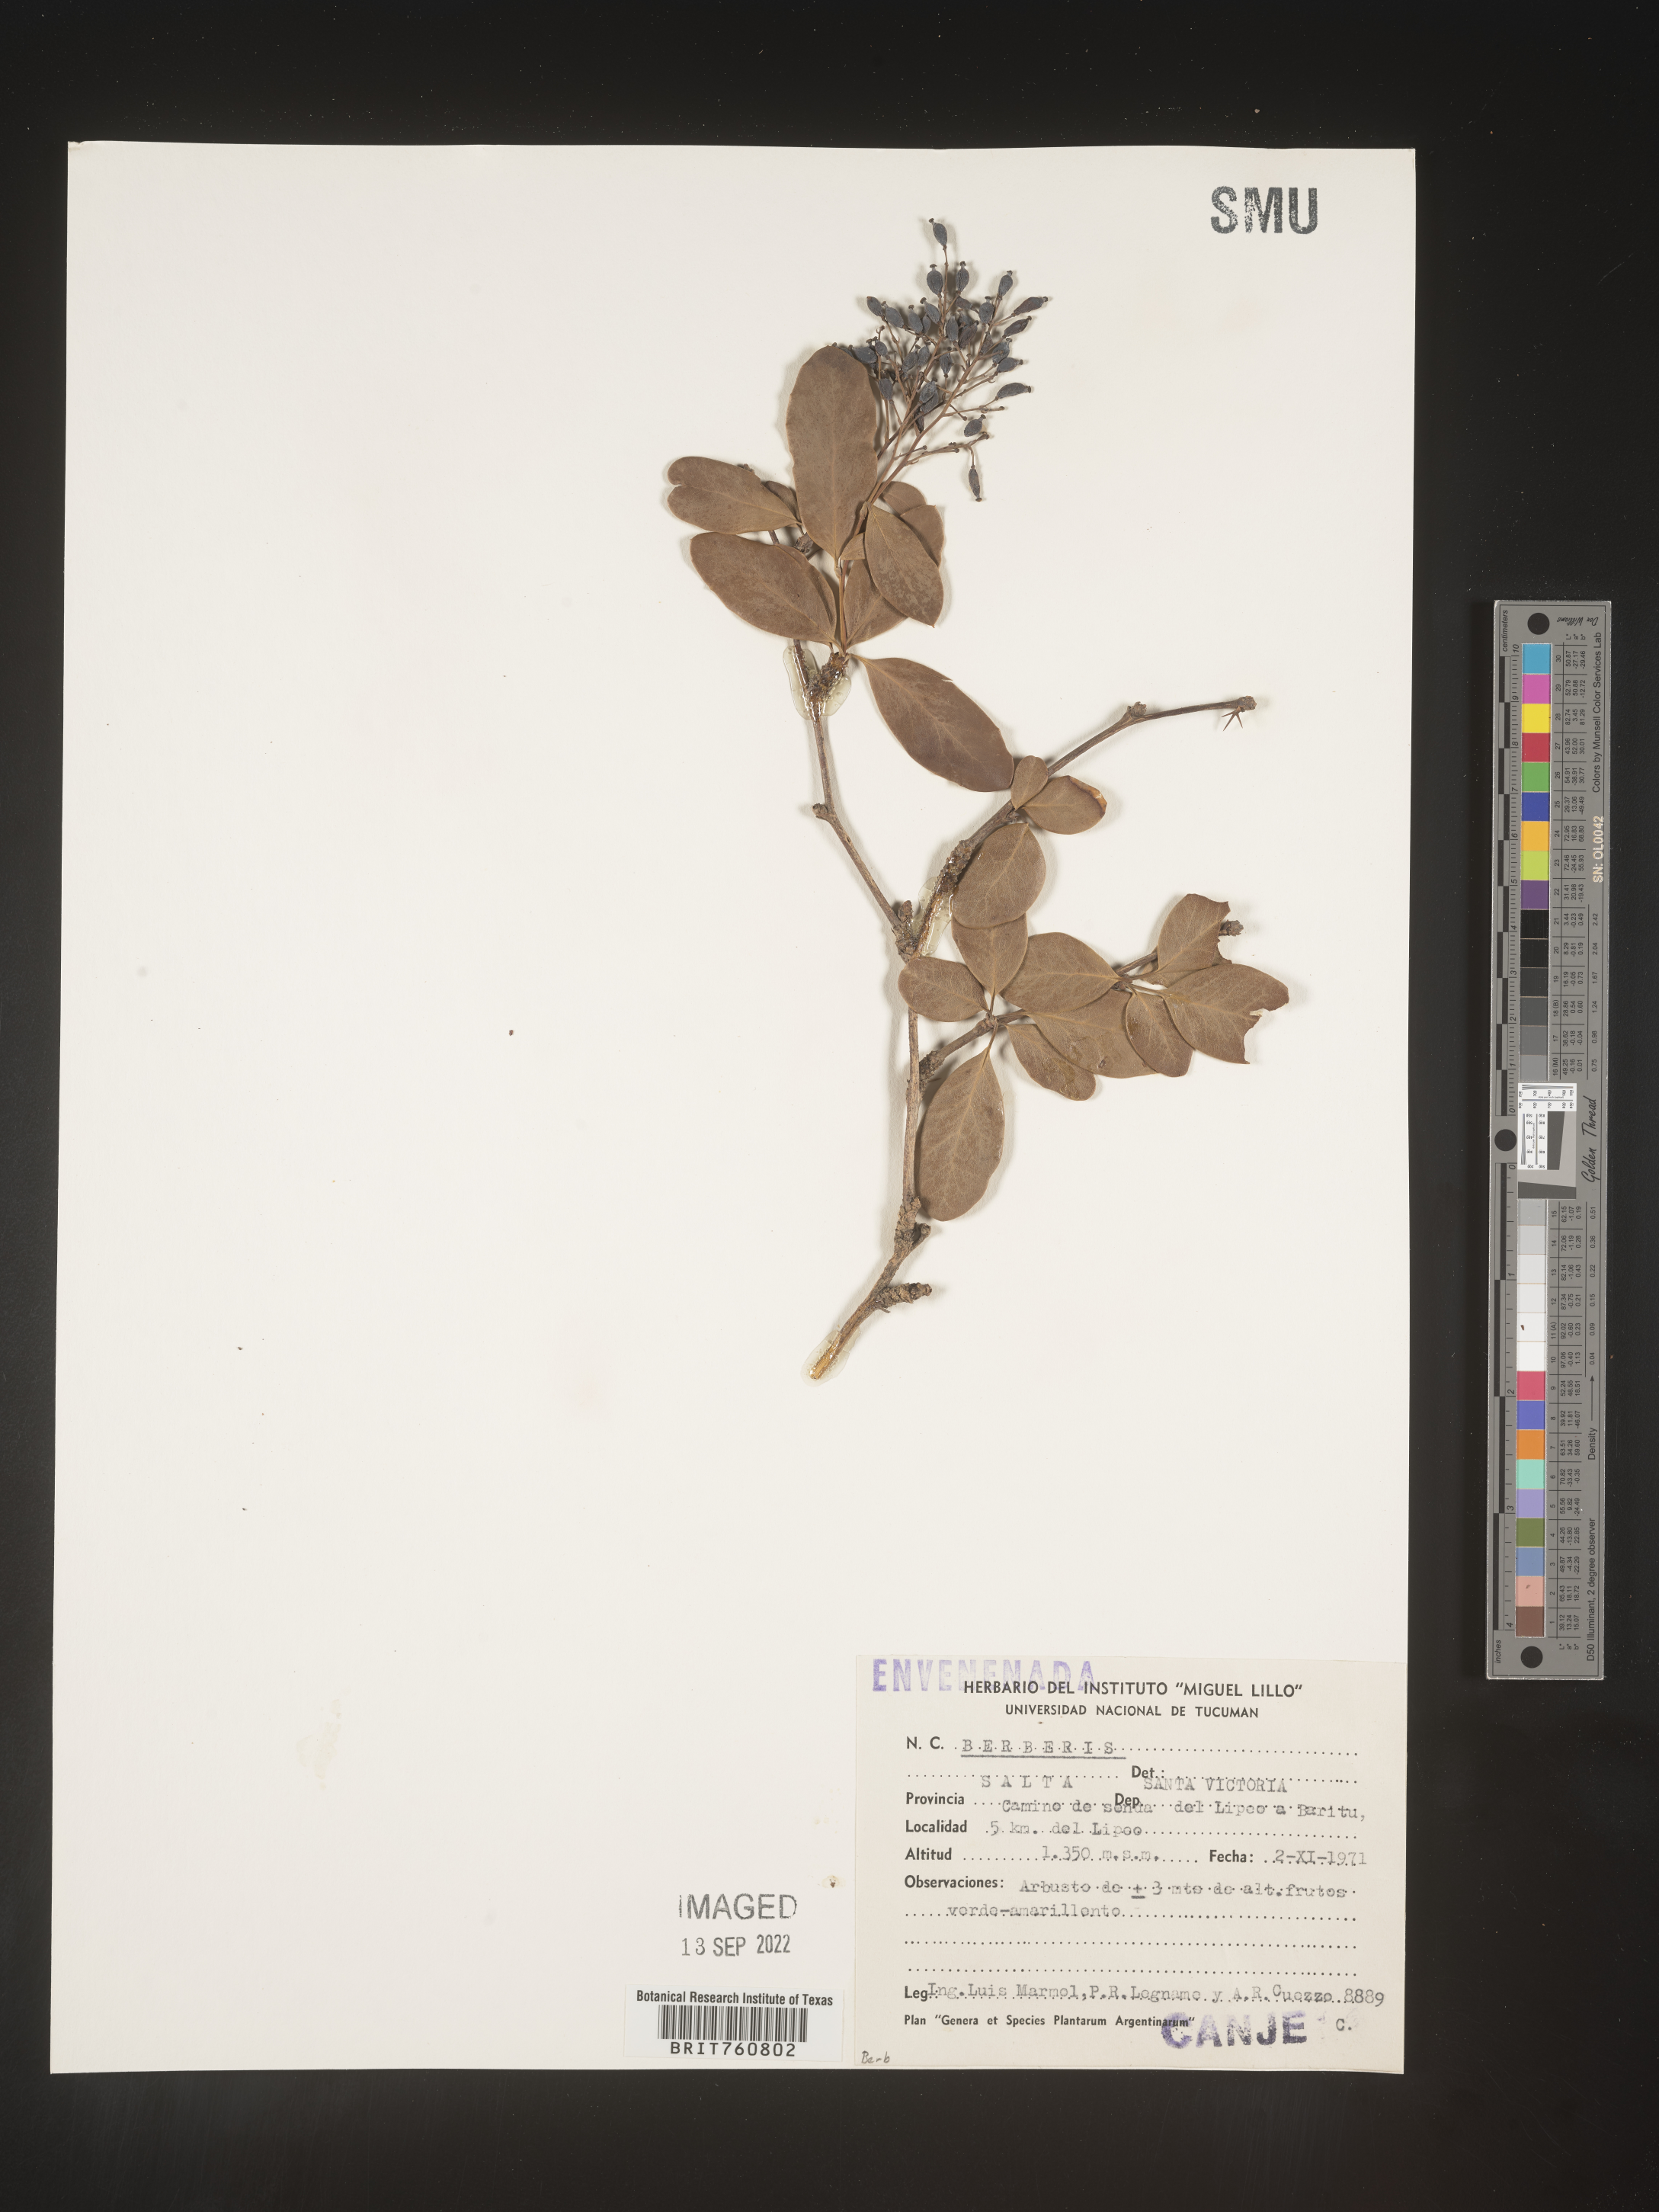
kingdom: Plantae
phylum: Tracheophyta
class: Magnoliopsida
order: Ranunculales
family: Berberidaceae
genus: Berberis
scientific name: Berberis
